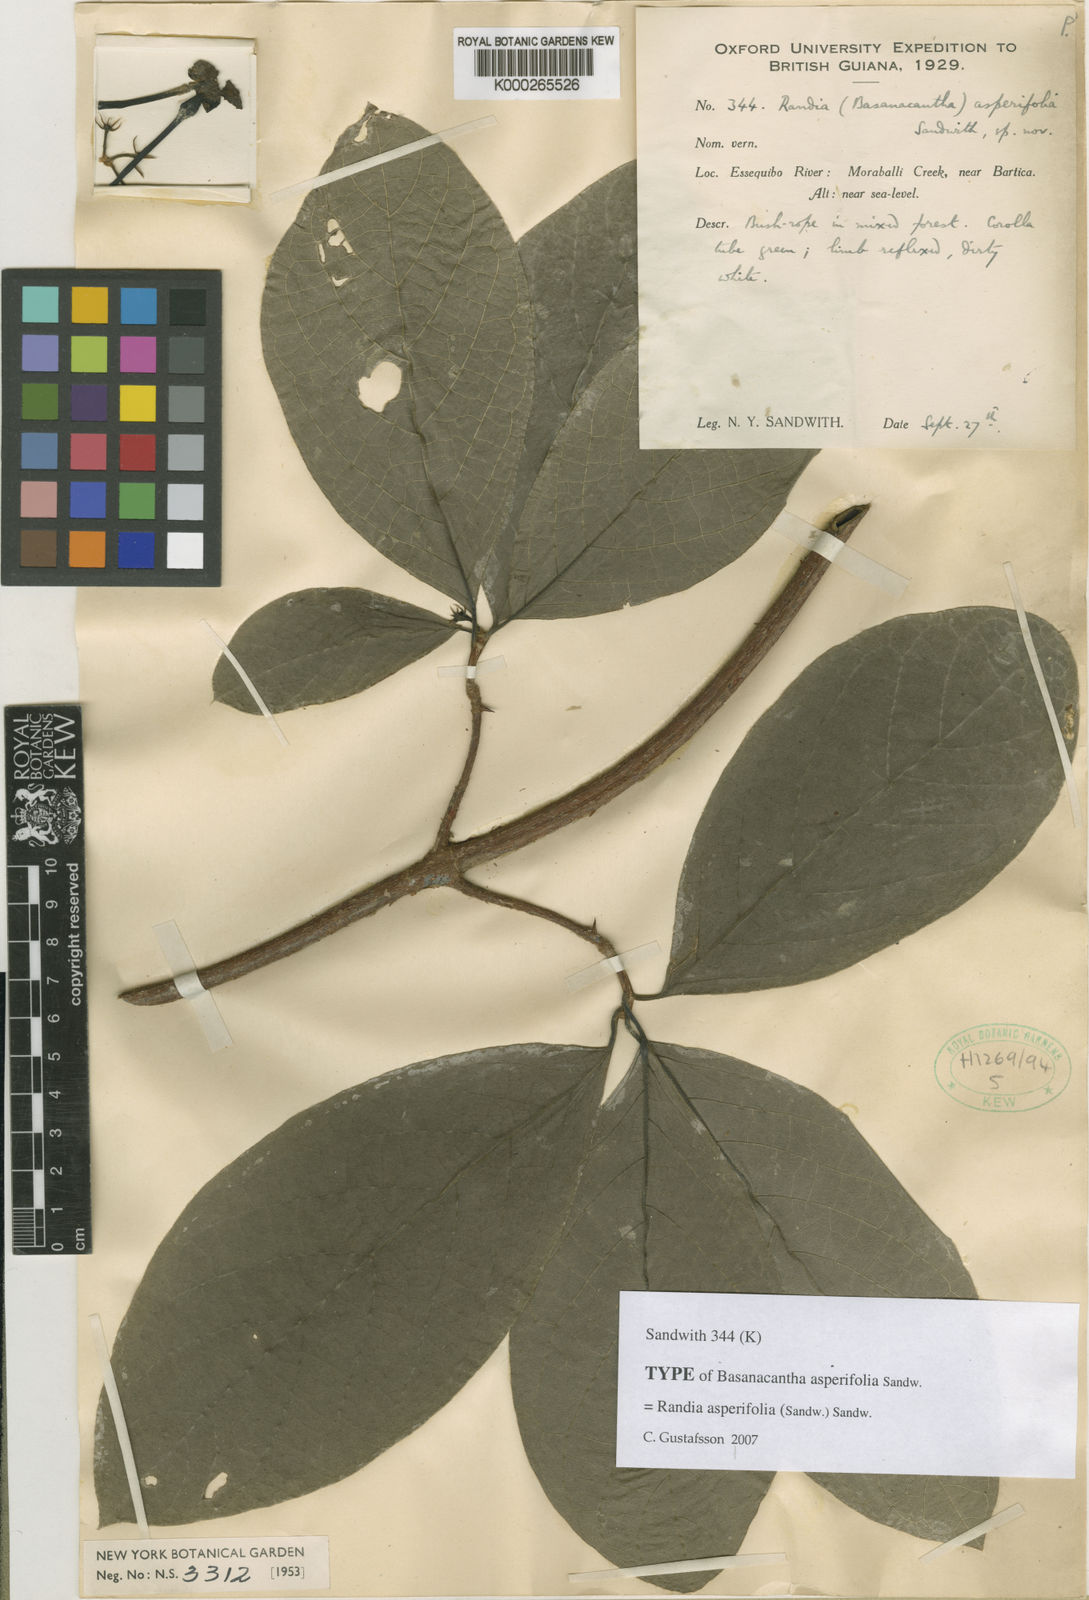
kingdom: Plantae
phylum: Tracheophyta
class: Magnoliopsida
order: Gentianales
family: Rubiaceae
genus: Randia
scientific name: Randia asperifolia
